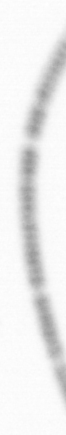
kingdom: Chromista
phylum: Ochrophyta
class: Bacillariophyceae
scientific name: Bacillariophyceae
